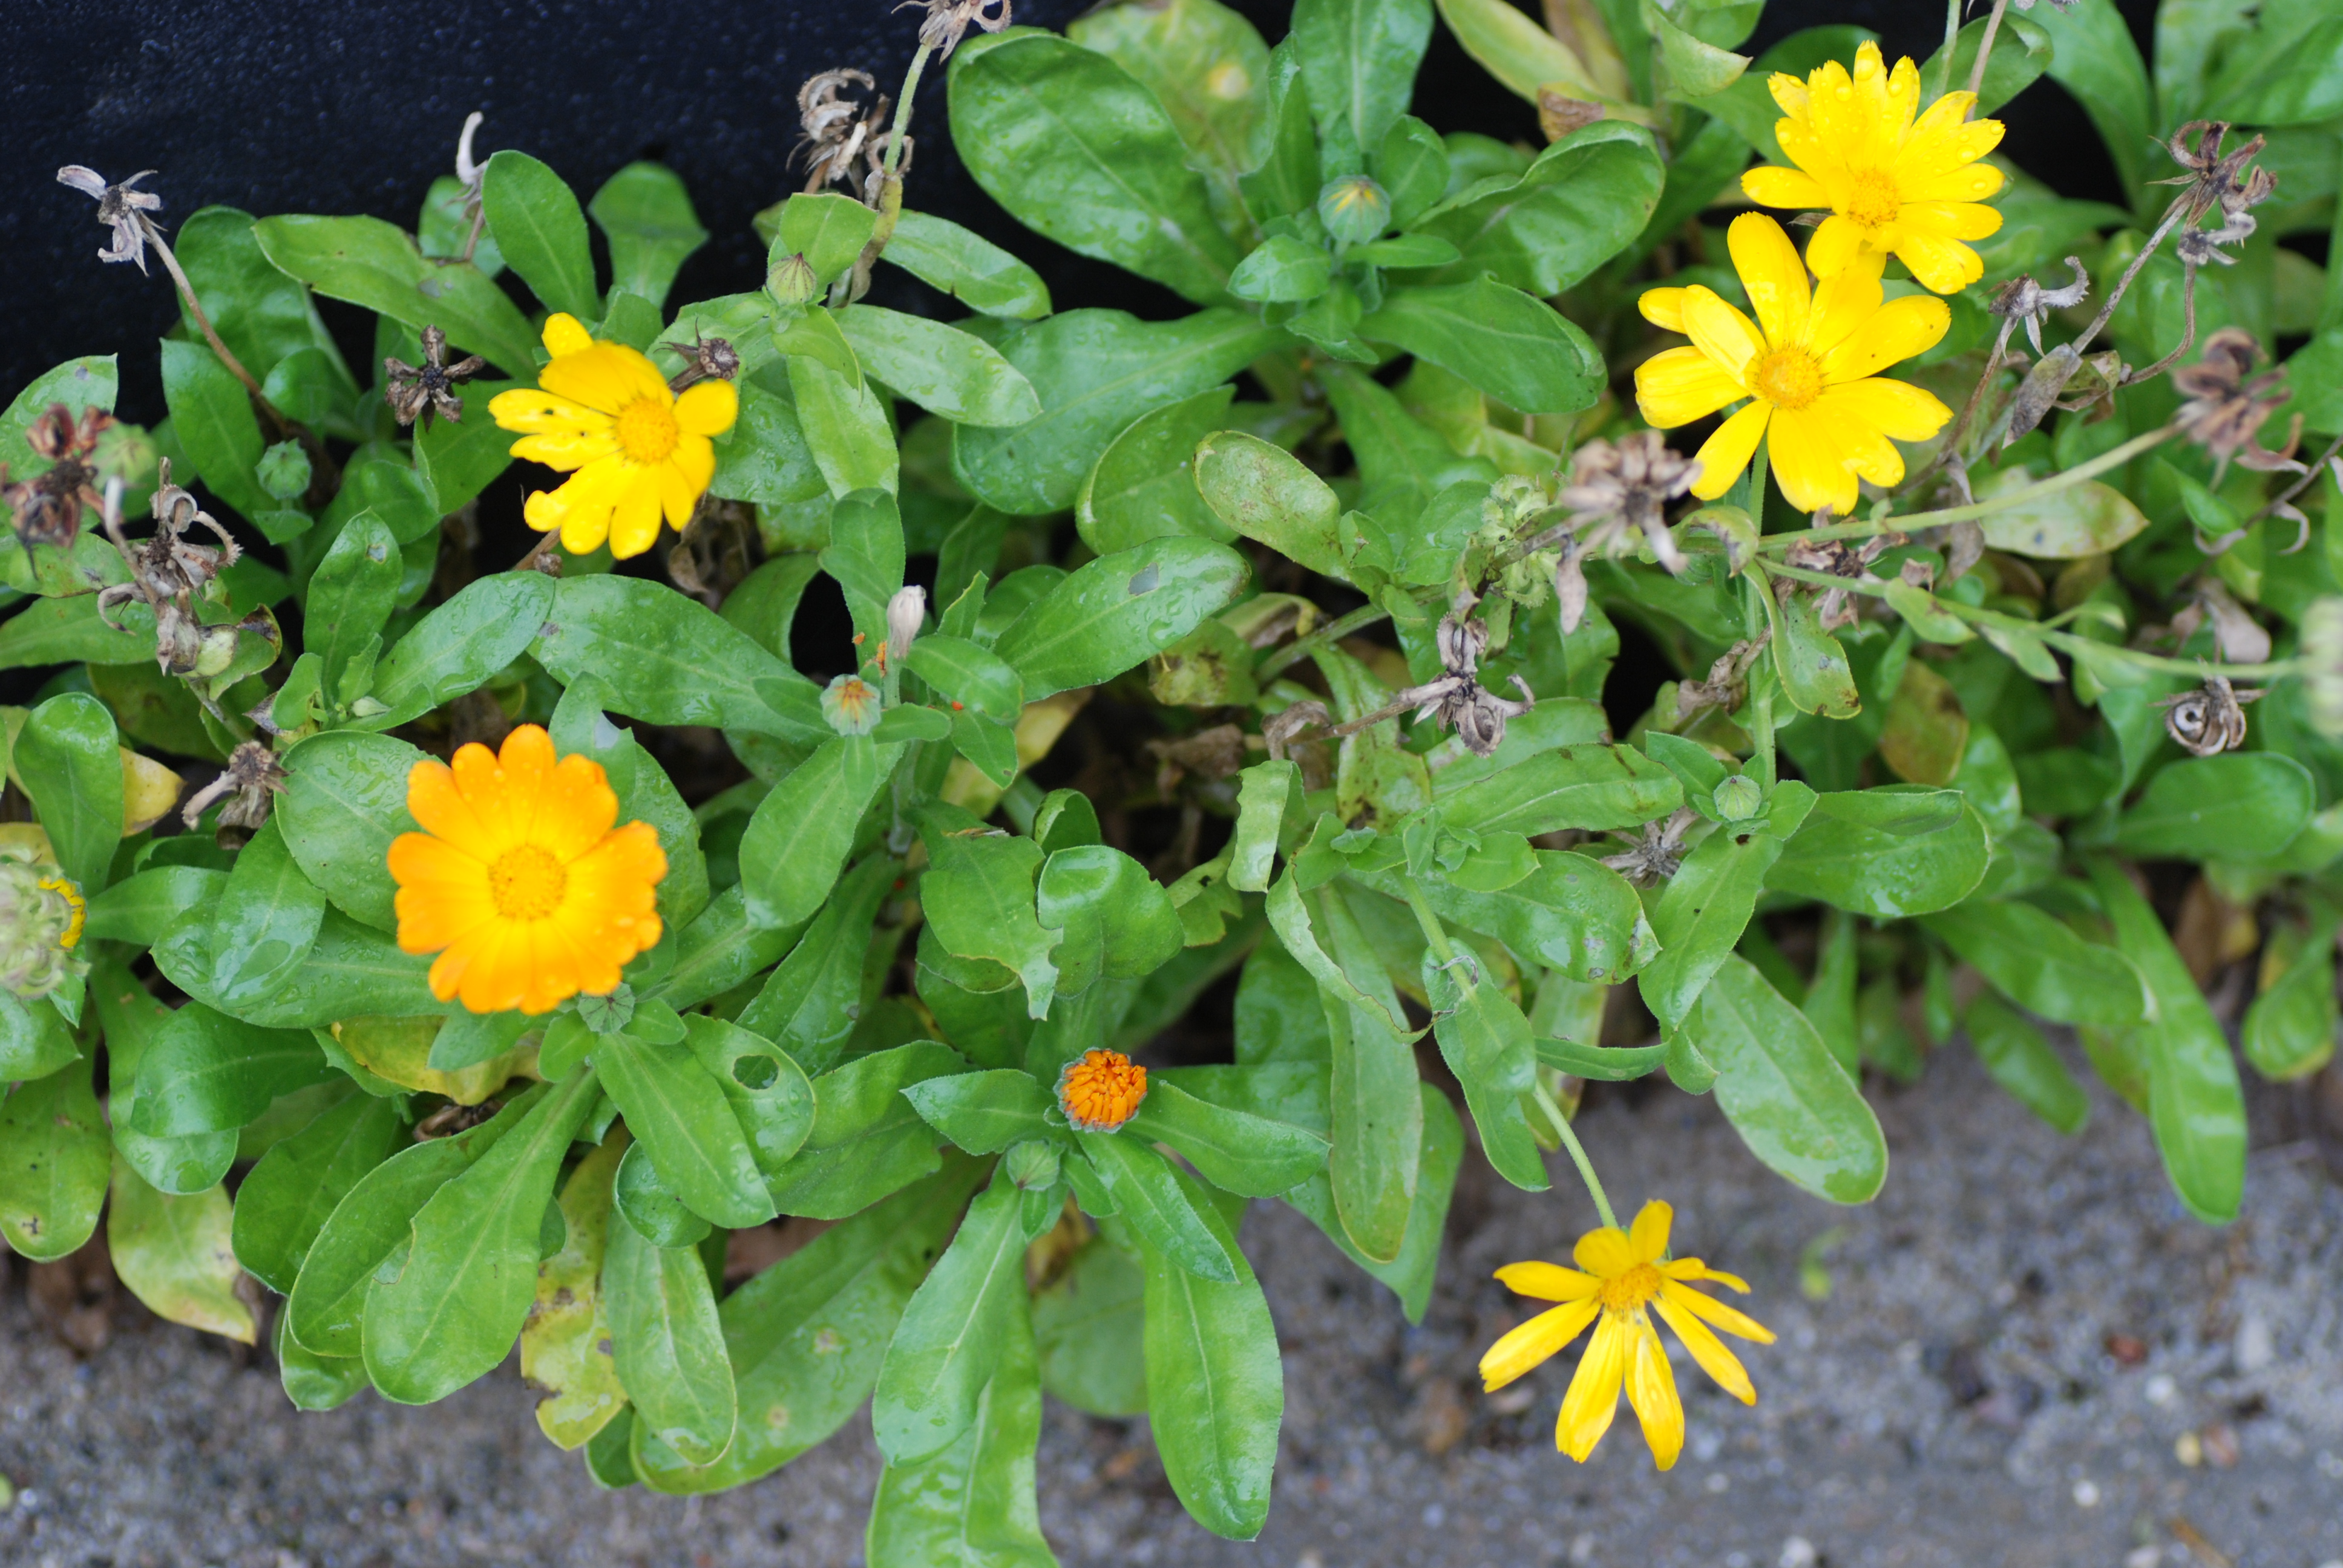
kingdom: Plantae
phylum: Tracheophyta
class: Magnoliopsida
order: Asterales
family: Asteraceae
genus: Calendula
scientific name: Calendula officinalis
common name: Pot marigold
